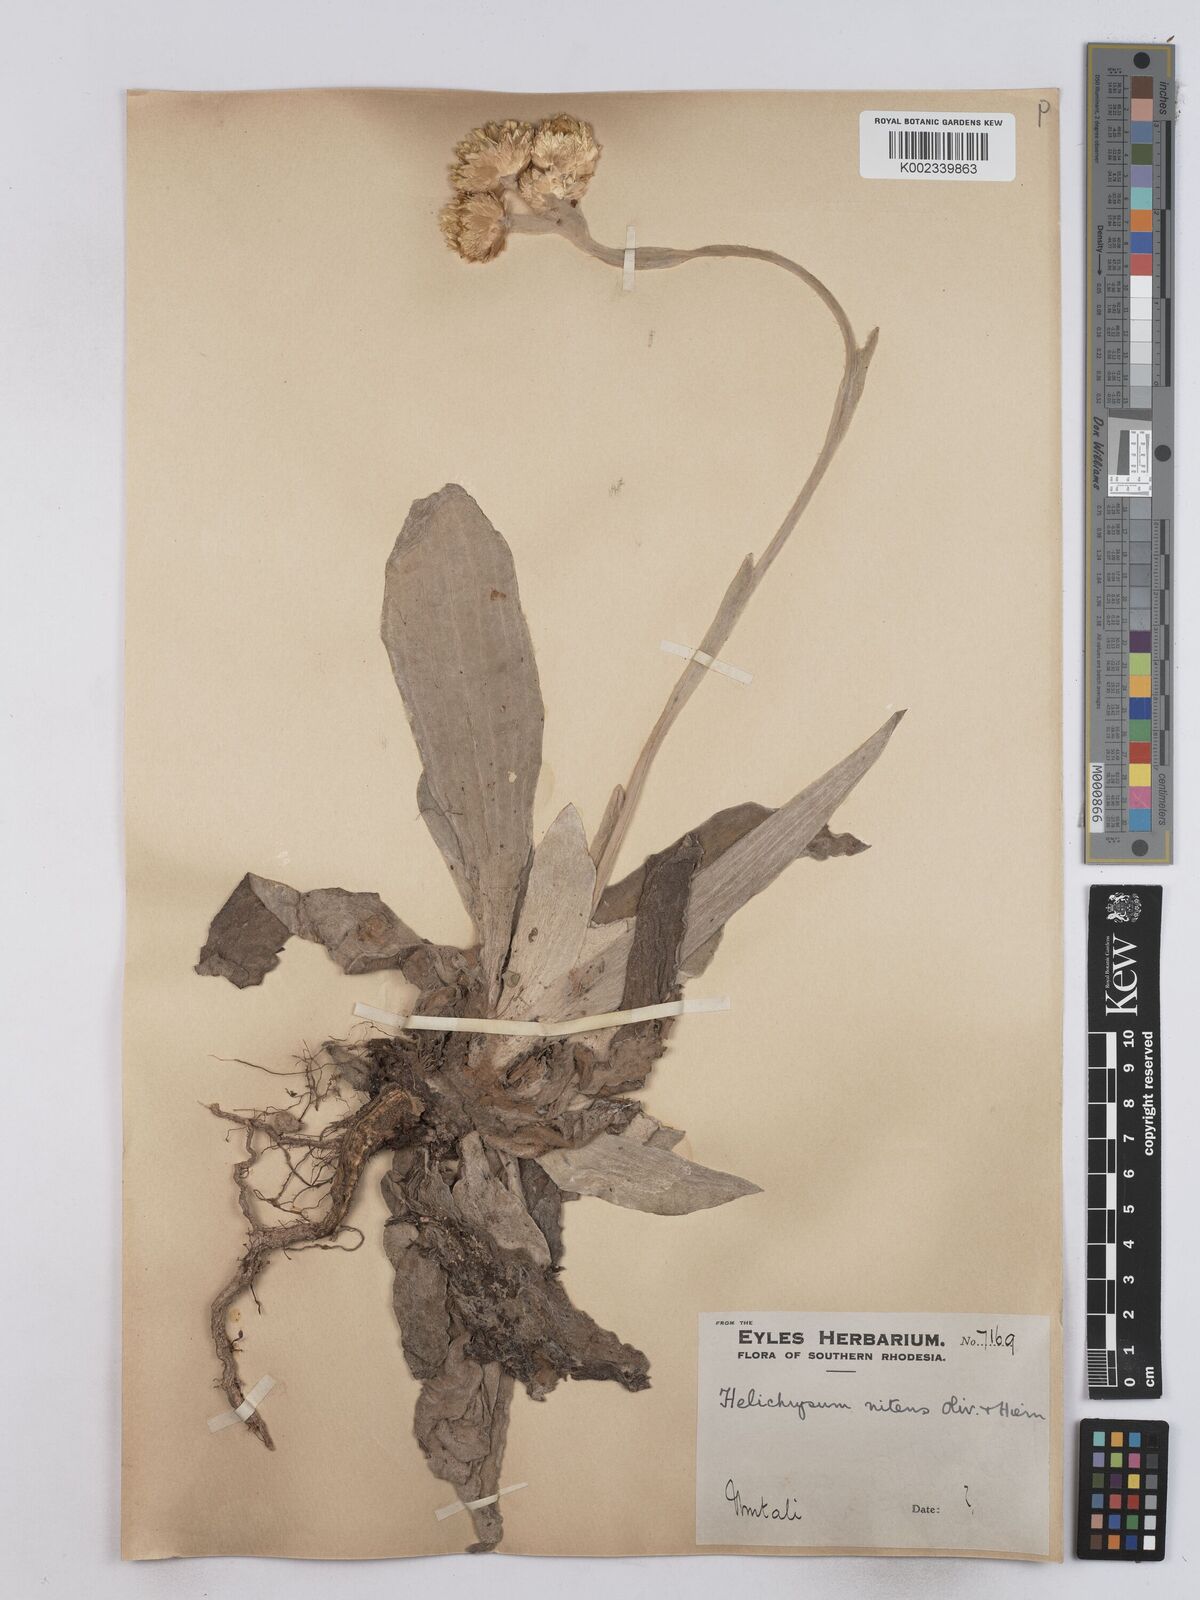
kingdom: Plantae
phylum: Tracheophyta
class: Magnoliopsida
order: Asterales
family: Asteraceae
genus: Helichrysum
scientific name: Helichrysum nitens
